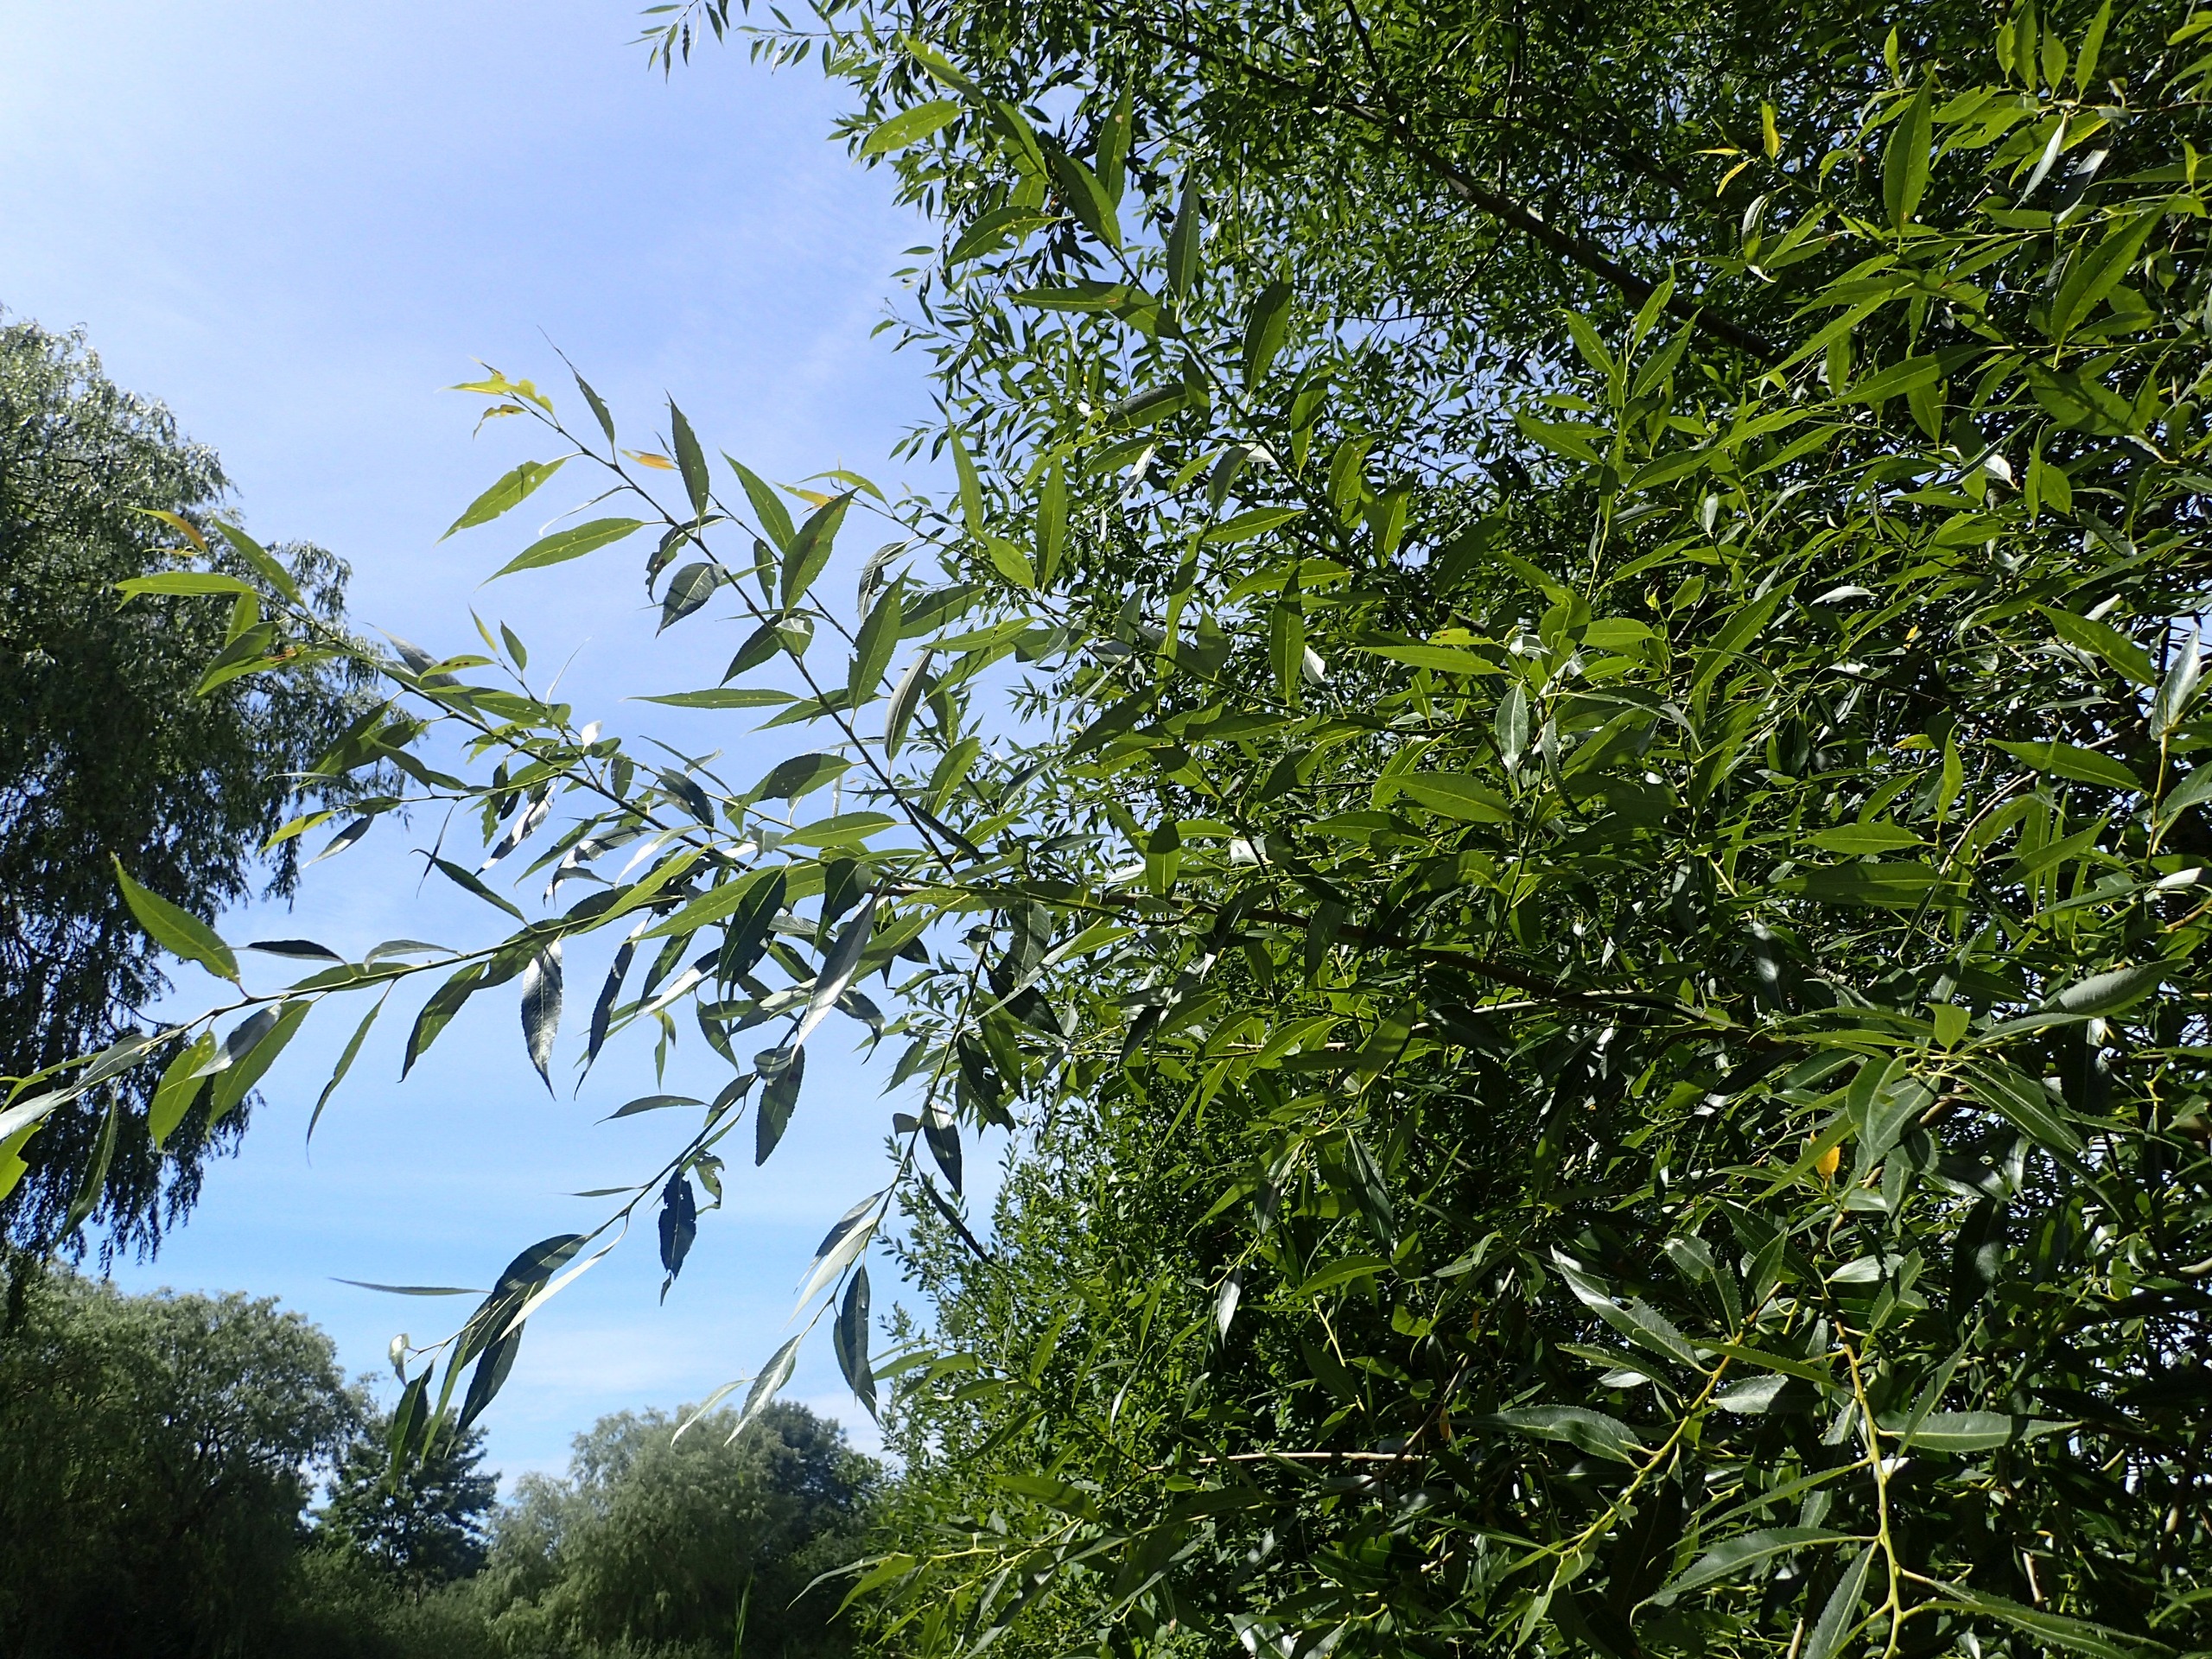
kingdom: Plantae
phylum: Tracheophyta
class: Magnoliopsida
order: Malpighiales
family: Salicaceae
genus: Salix
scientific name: Salix alba
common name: Skør-pil
